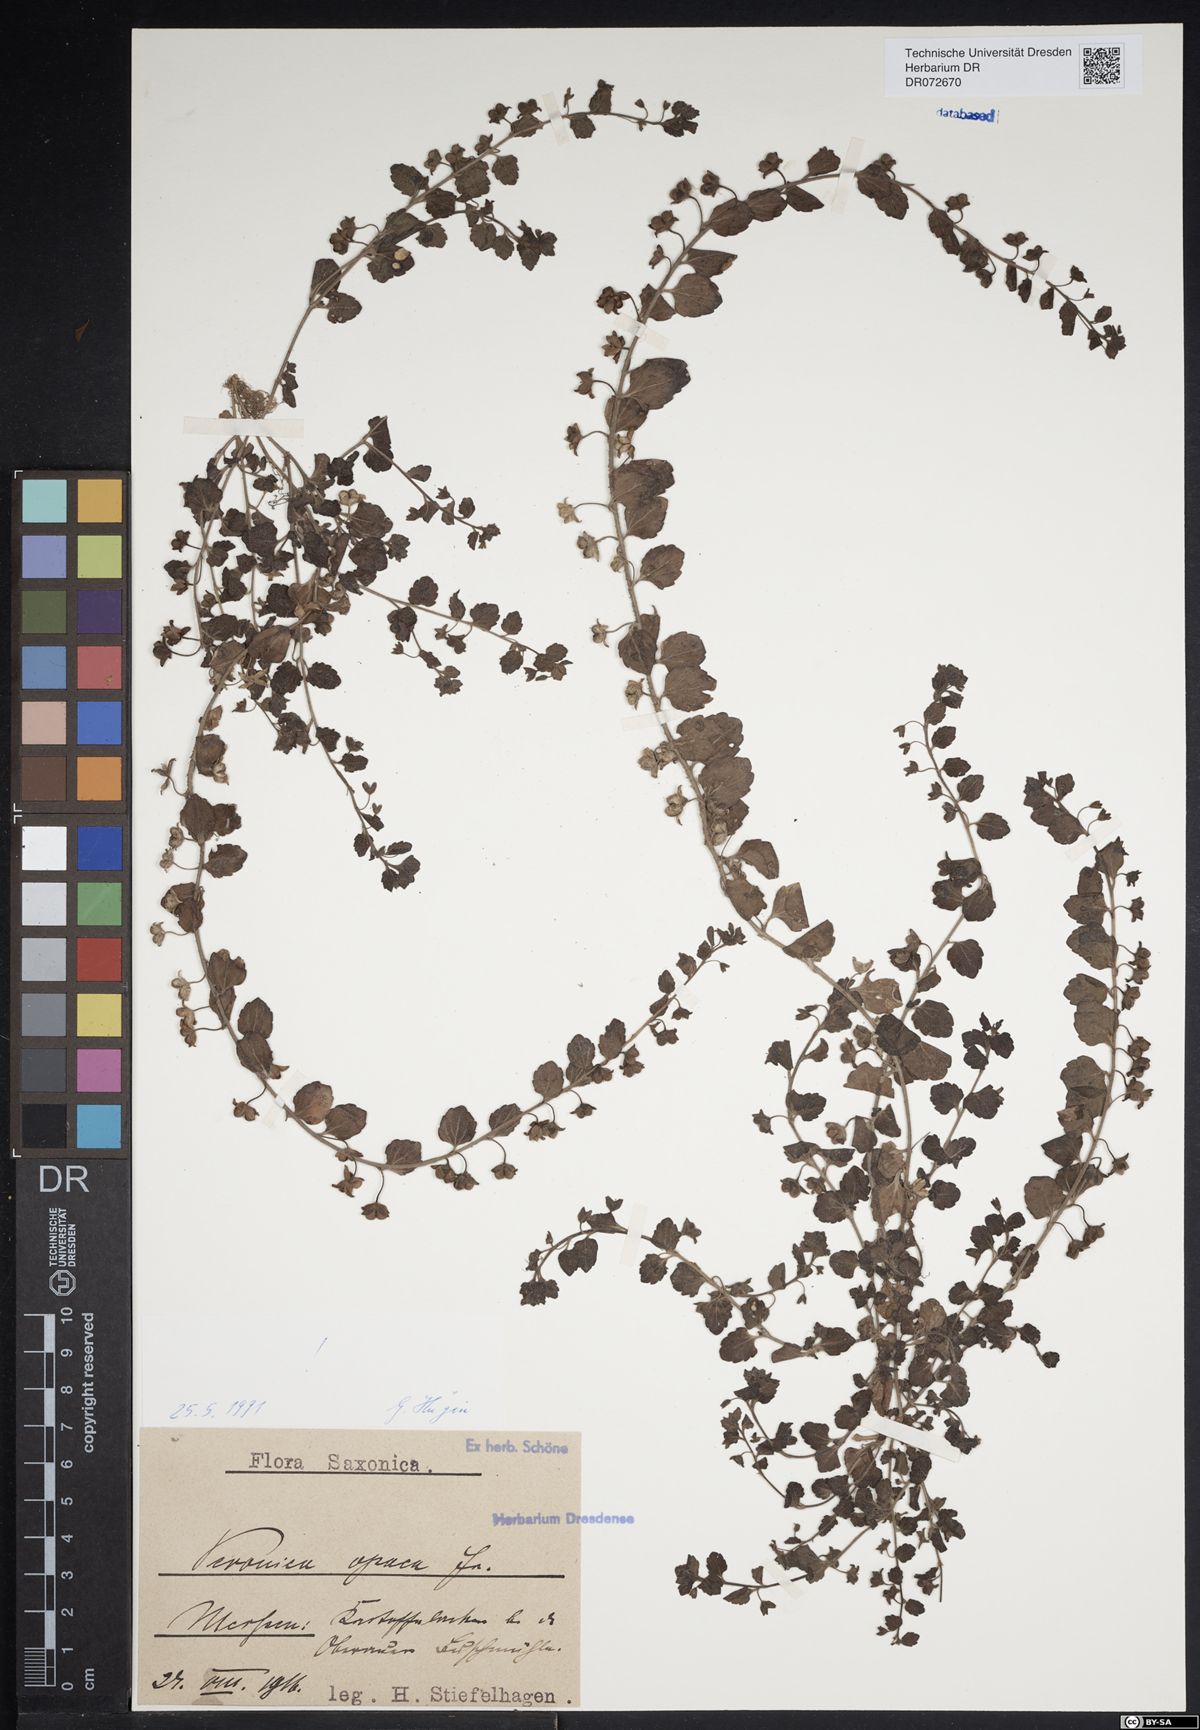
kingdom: Plantae
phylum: Tracheophyta
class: Magnoliopsida
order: Lamiales
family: Plantaginaceae
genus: Veronica
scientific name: Veronica opaca
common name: Dark speedwell
